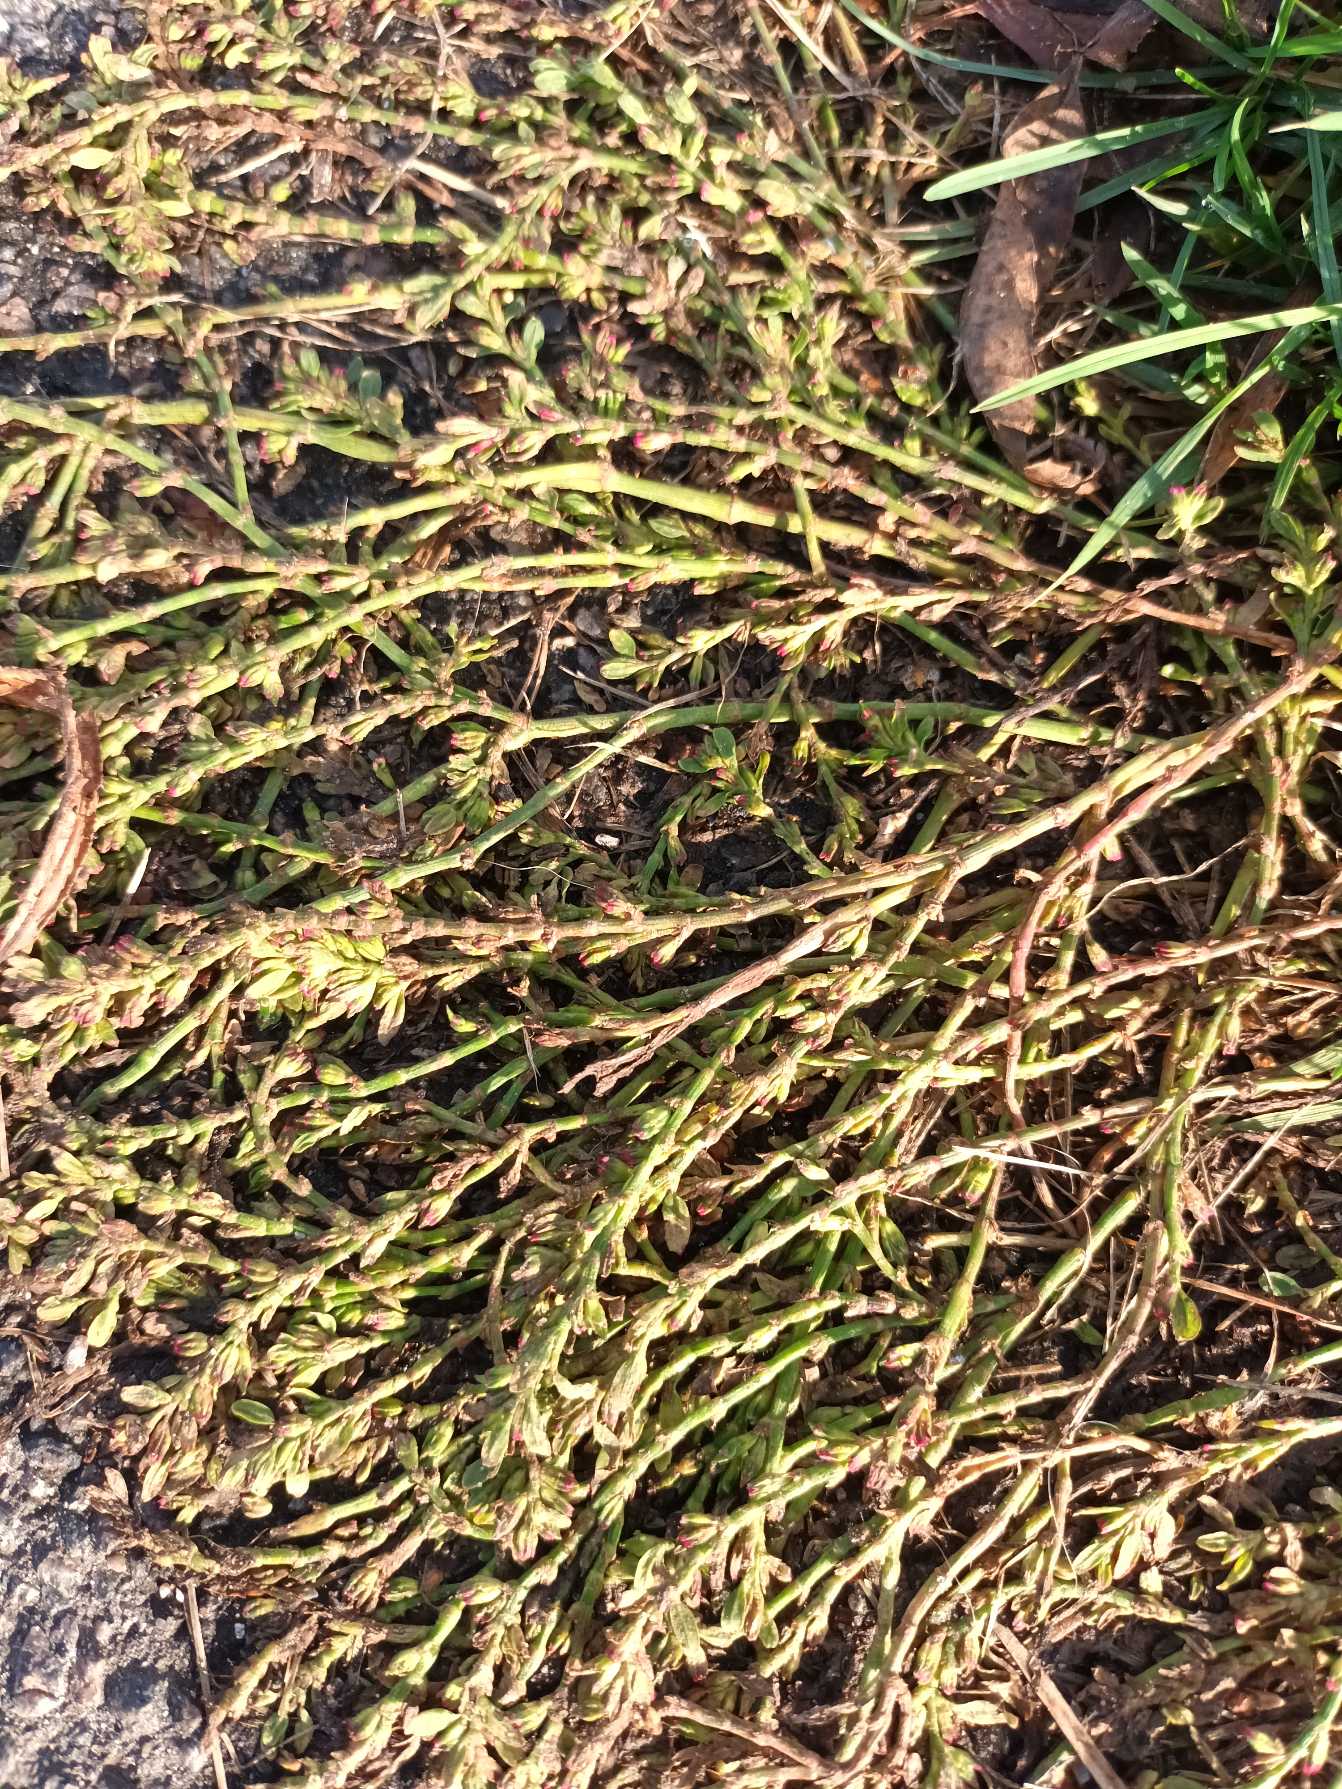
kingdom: Plantae
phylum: Tracheophyta
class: Magnoliopsida
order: Caryophyllales
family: Polygonaceae
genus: Polygonum
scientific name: Polygonum arenastrum
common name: Liggende vej-pileurt
